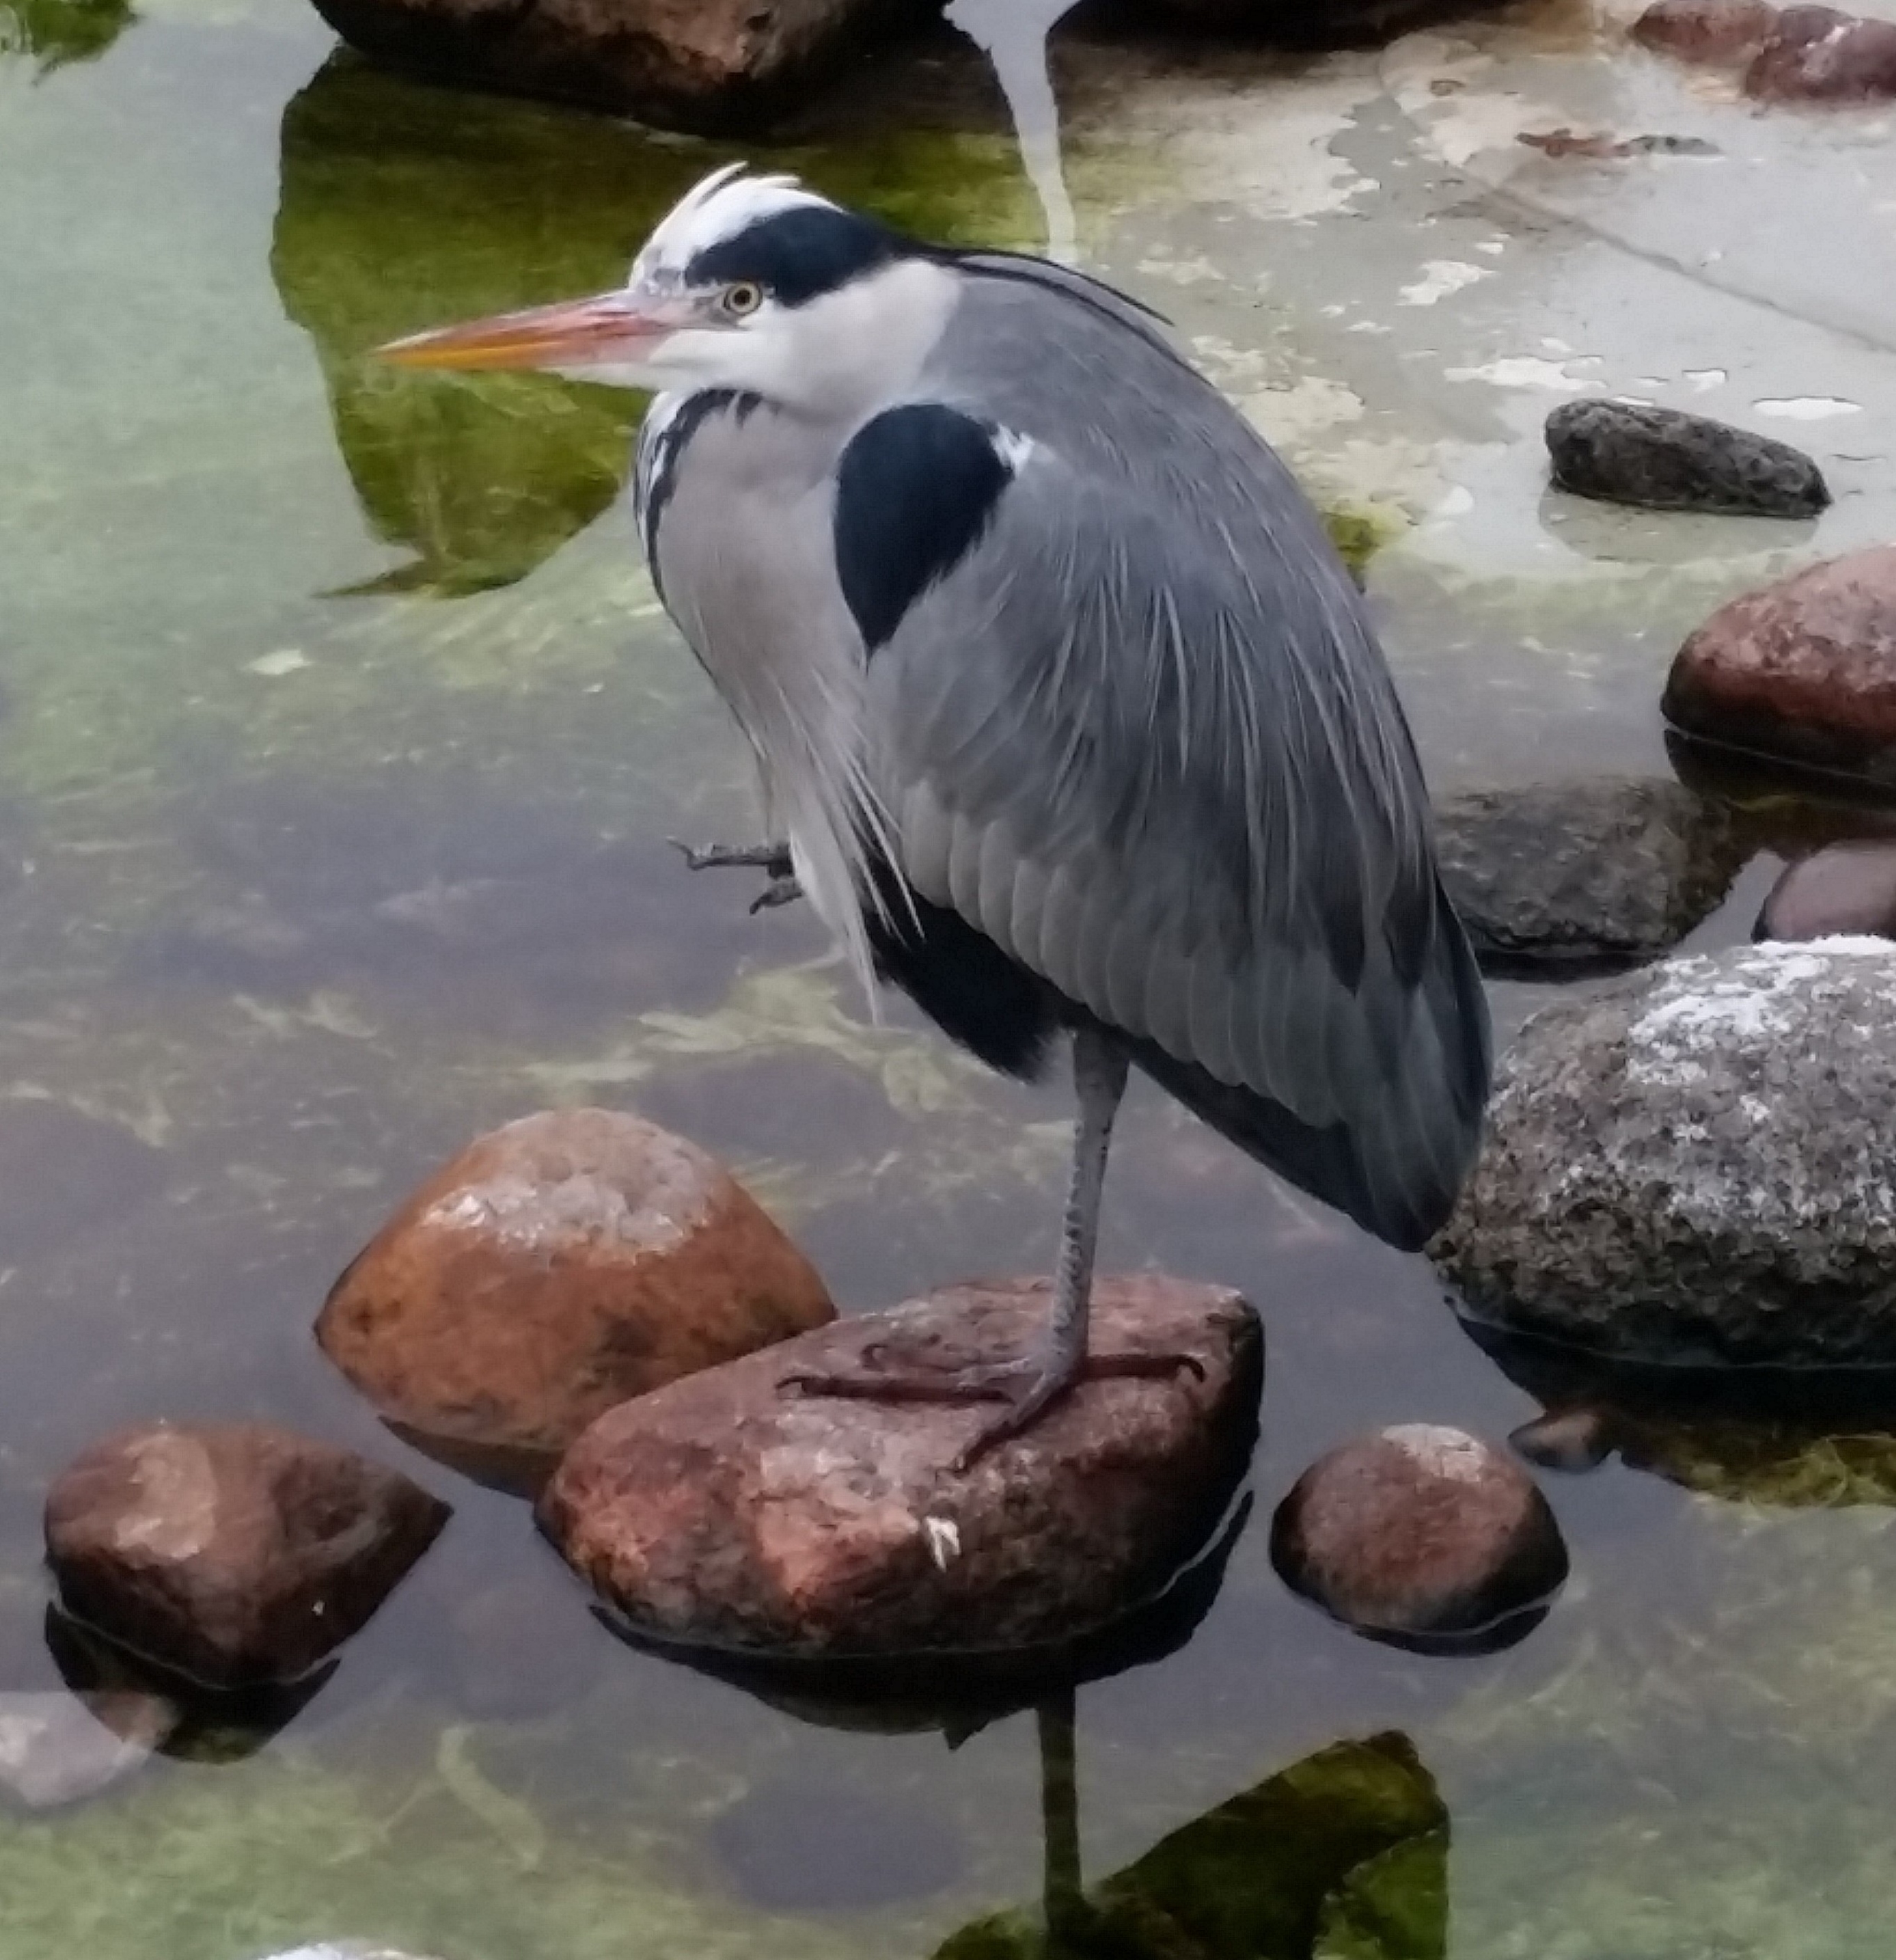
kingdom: Animalia
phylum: Chordata
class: Aves
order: Pelecaniformes
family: Ardeidae
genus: Ardea
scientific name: Ardea cinerea
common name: Fiskehejre
